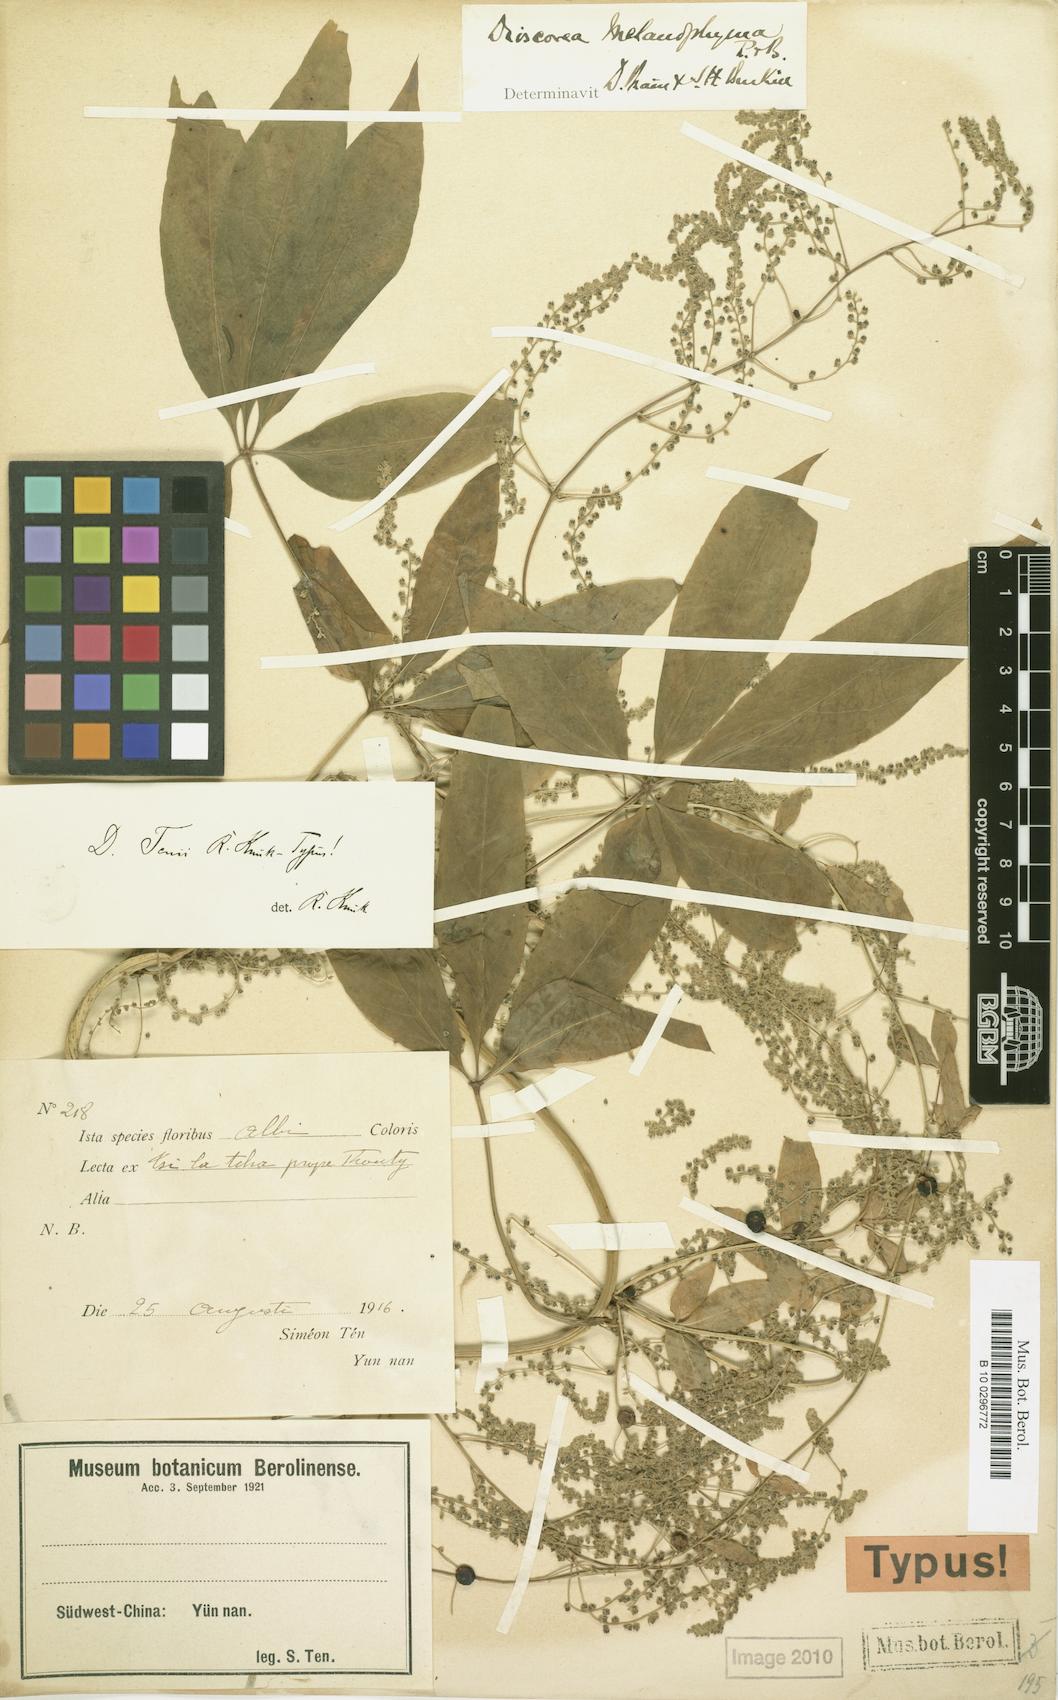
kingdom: Plantae
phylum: Tracheophyta
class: Liliopsida
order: Dioscoreales
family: Dioscoreaceae
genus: Dioscorea
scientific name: Dioscorea melanophyma
